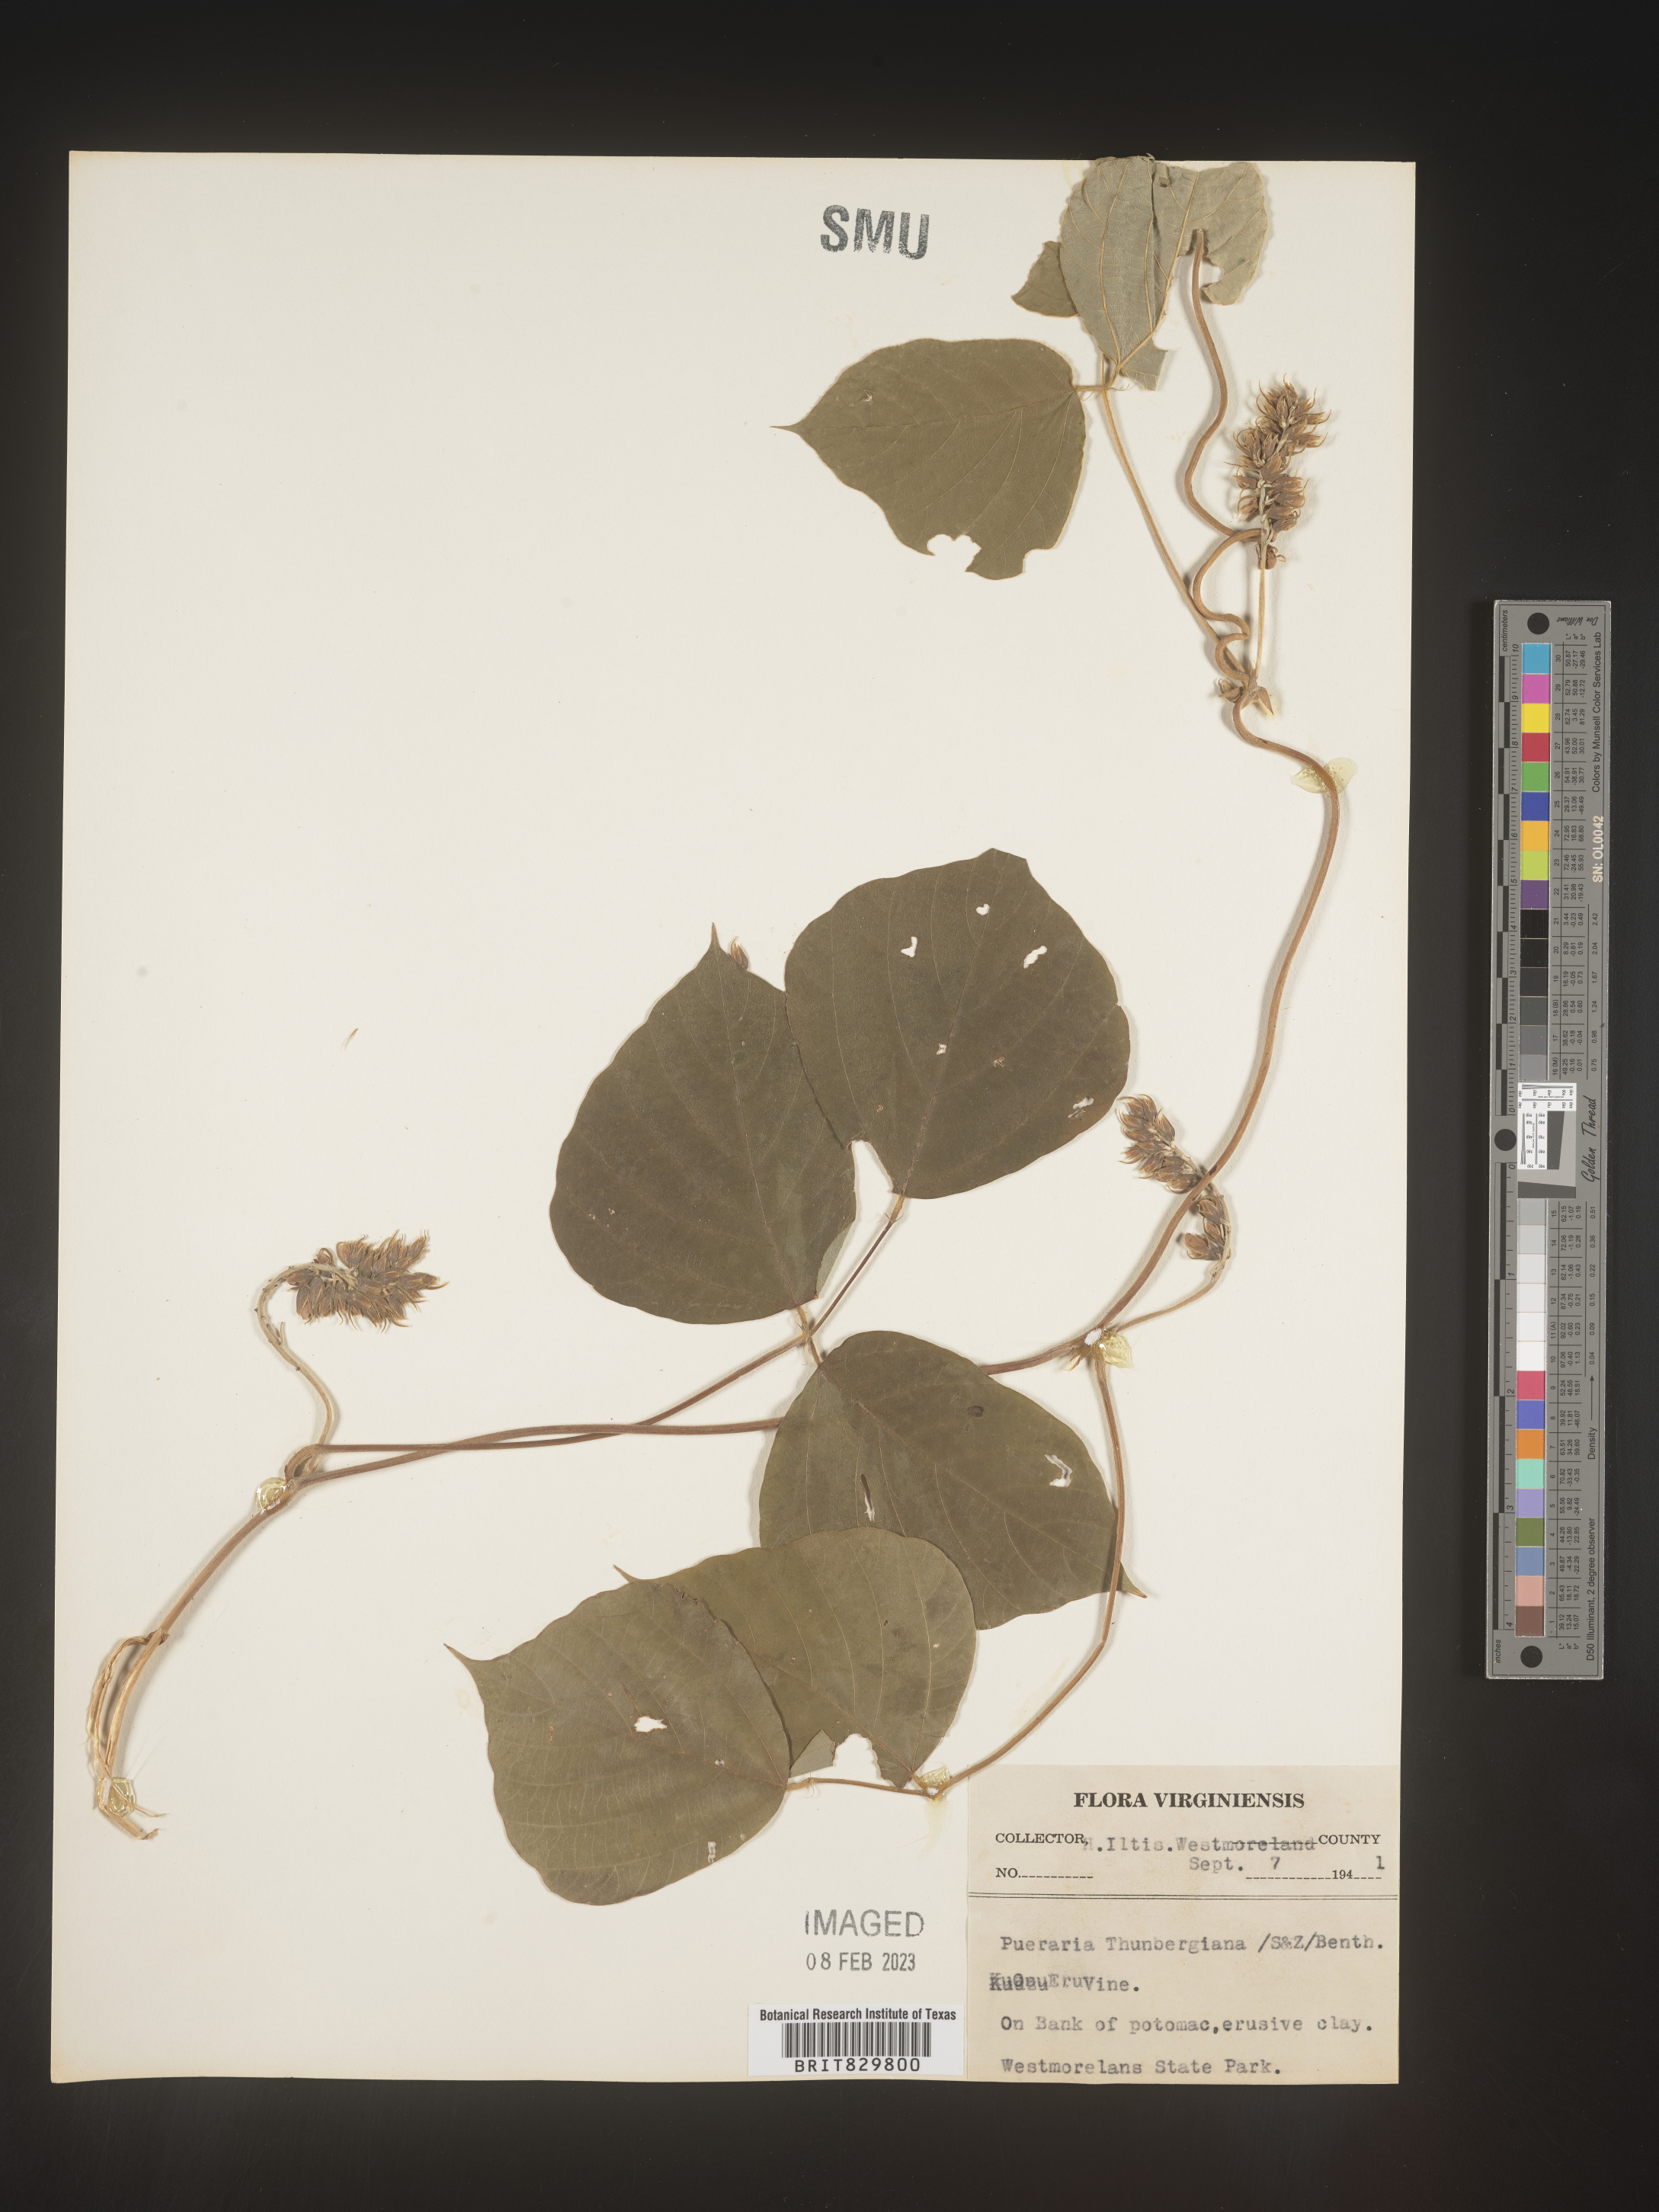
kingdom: Plantae
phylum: Tracheophyta
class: Magnoliopsida
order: Fabales
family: Fabaceae
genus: Pueraria
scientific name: Pueraria montana
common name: Kudzu
